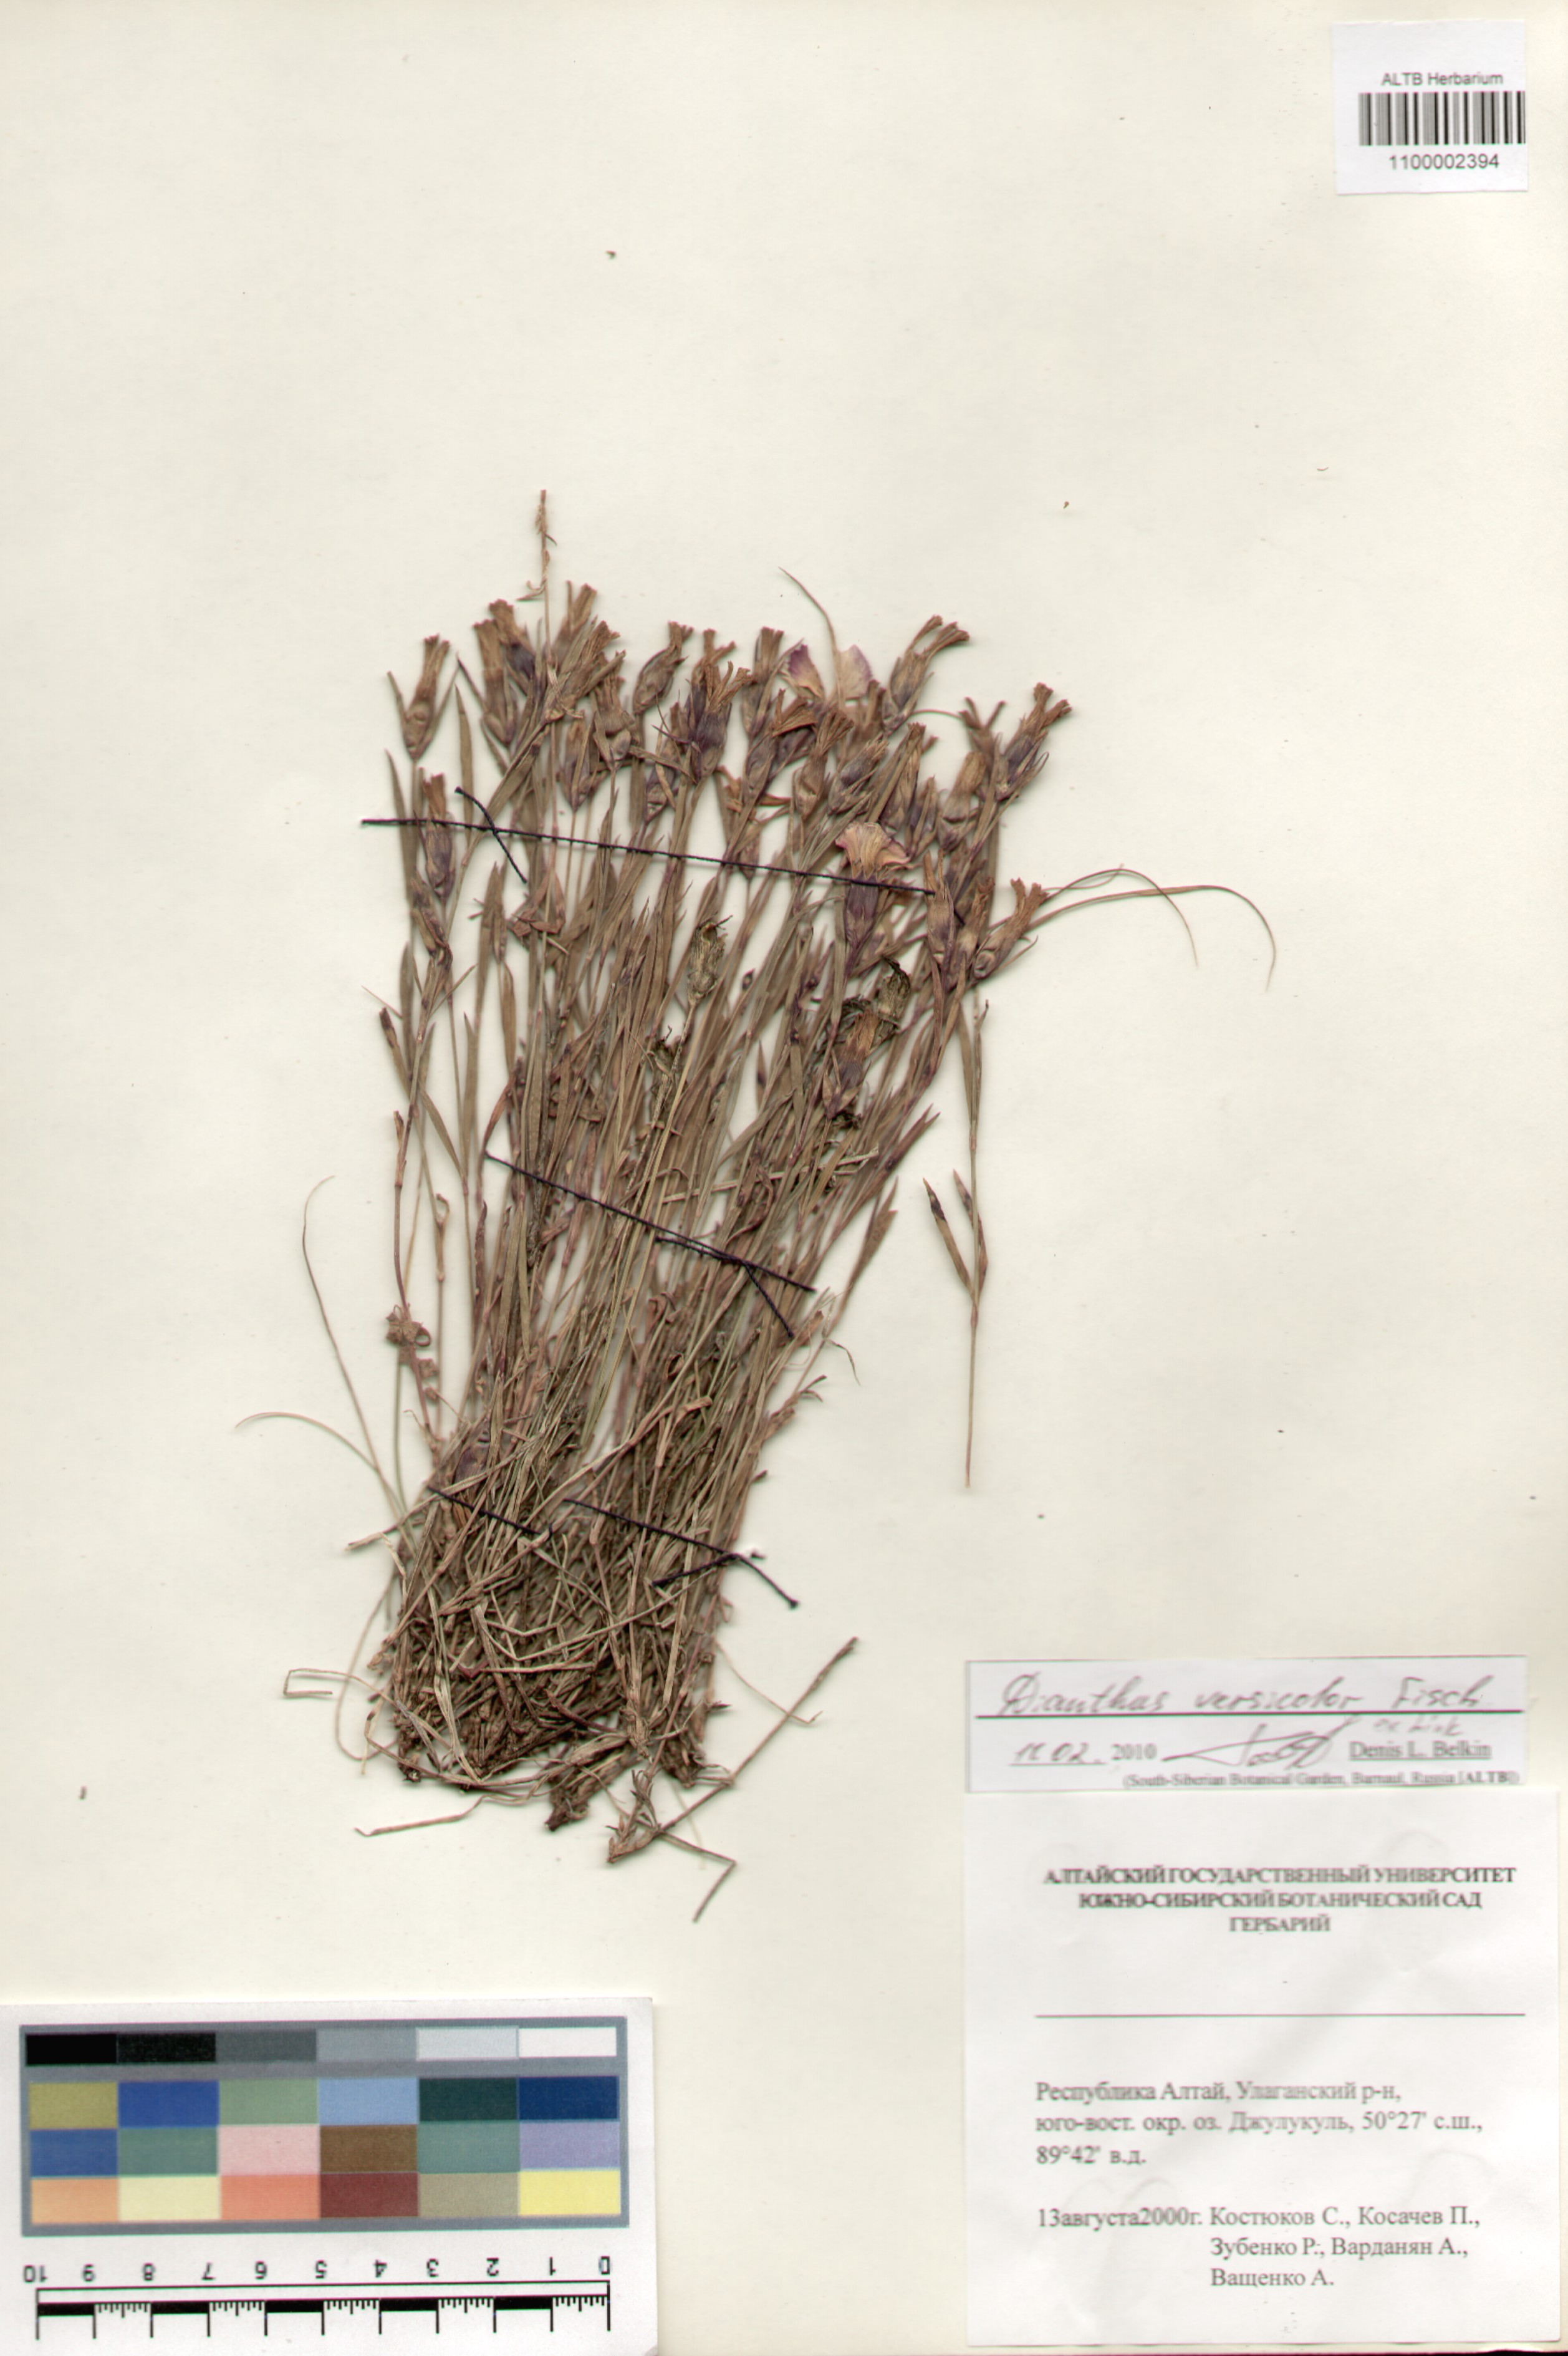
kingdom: Plantae
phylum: Tracheophyta
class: Magnoliopsida
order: Caryophyllales
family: Caryophyllaceae
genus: Dianthus
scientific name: Dianthus chinensis
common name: Rainbow pink
